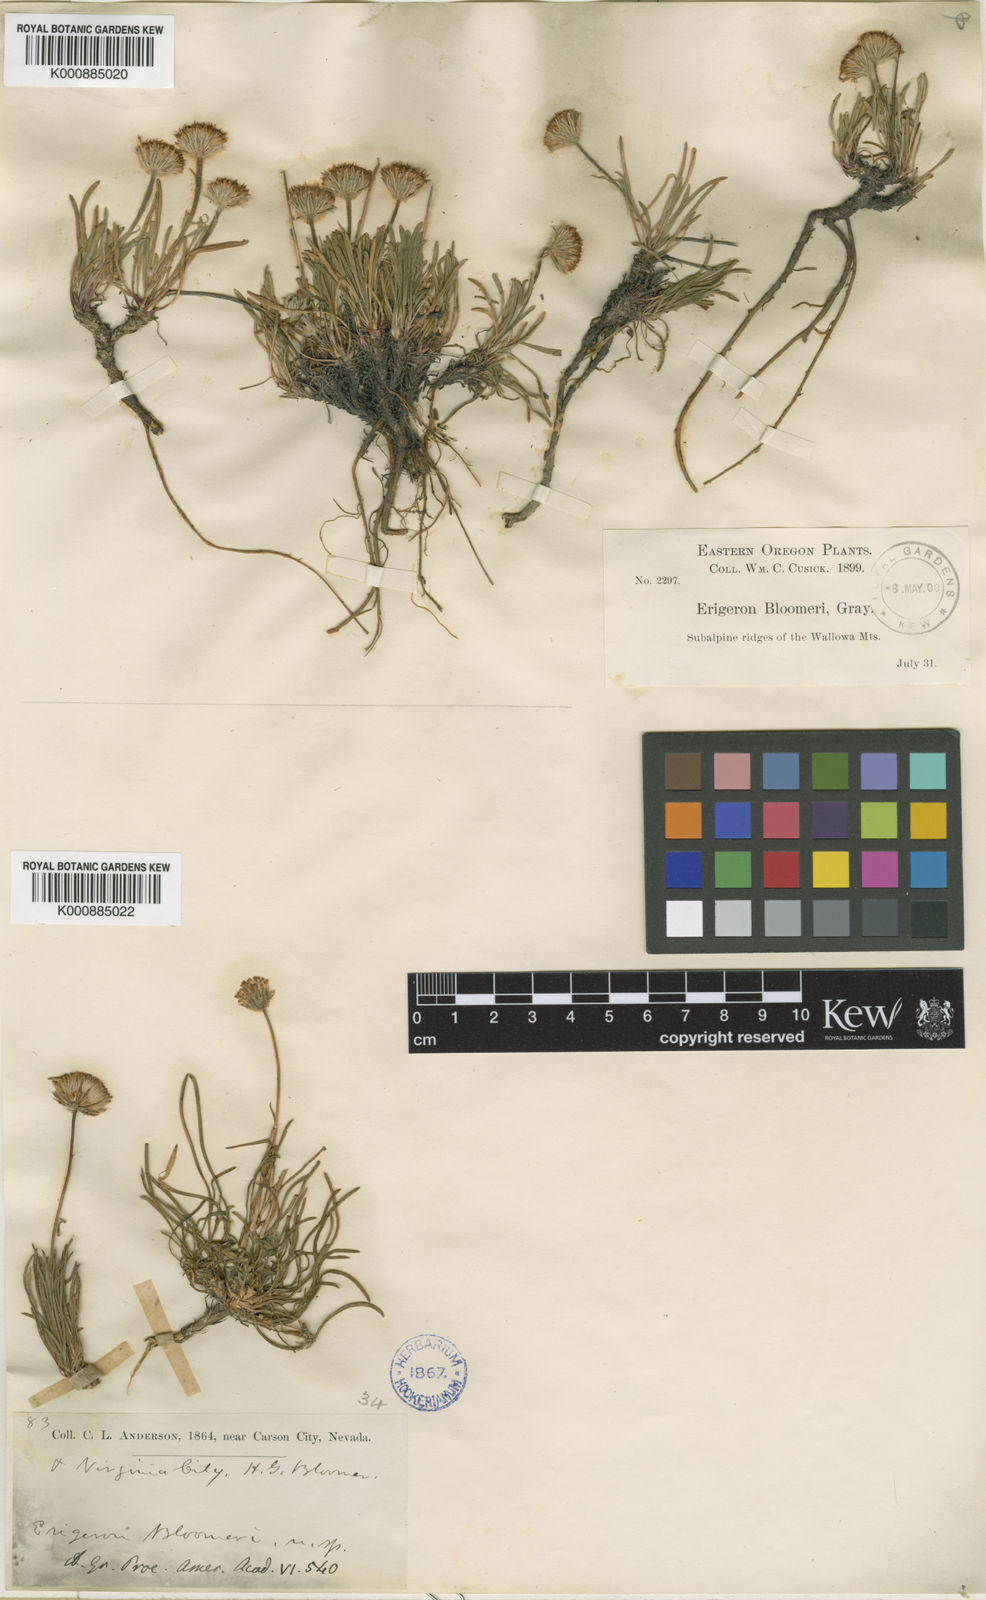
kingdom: Plantae
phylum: Tracheophyta
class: Magnoliopsida
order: Asterales
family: Asteraceae
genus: Erigeron
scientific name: Erigeron
